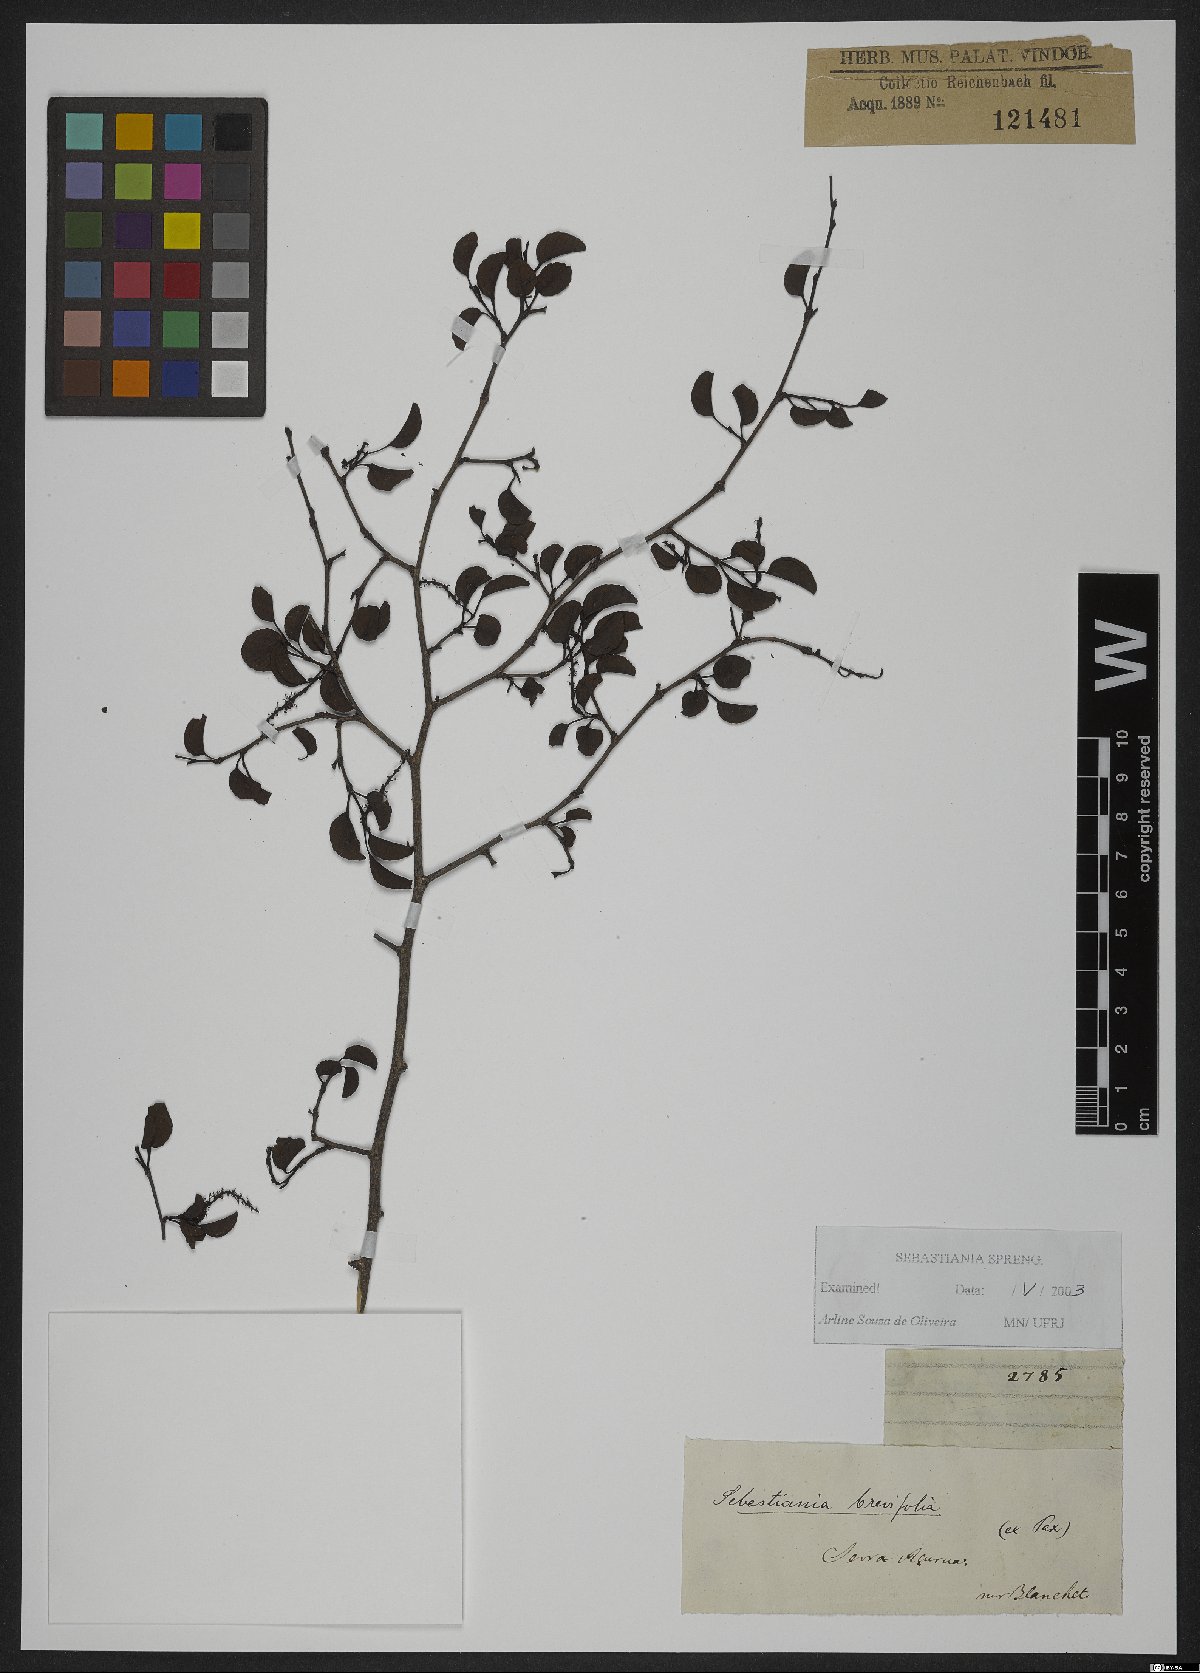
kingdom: Plantae
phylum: Tracheophyta
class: Magnoliopsida
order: Malpighiales
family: Euphorbiaceae
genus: Sebastiania
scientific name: Sebastiania brevifolia
